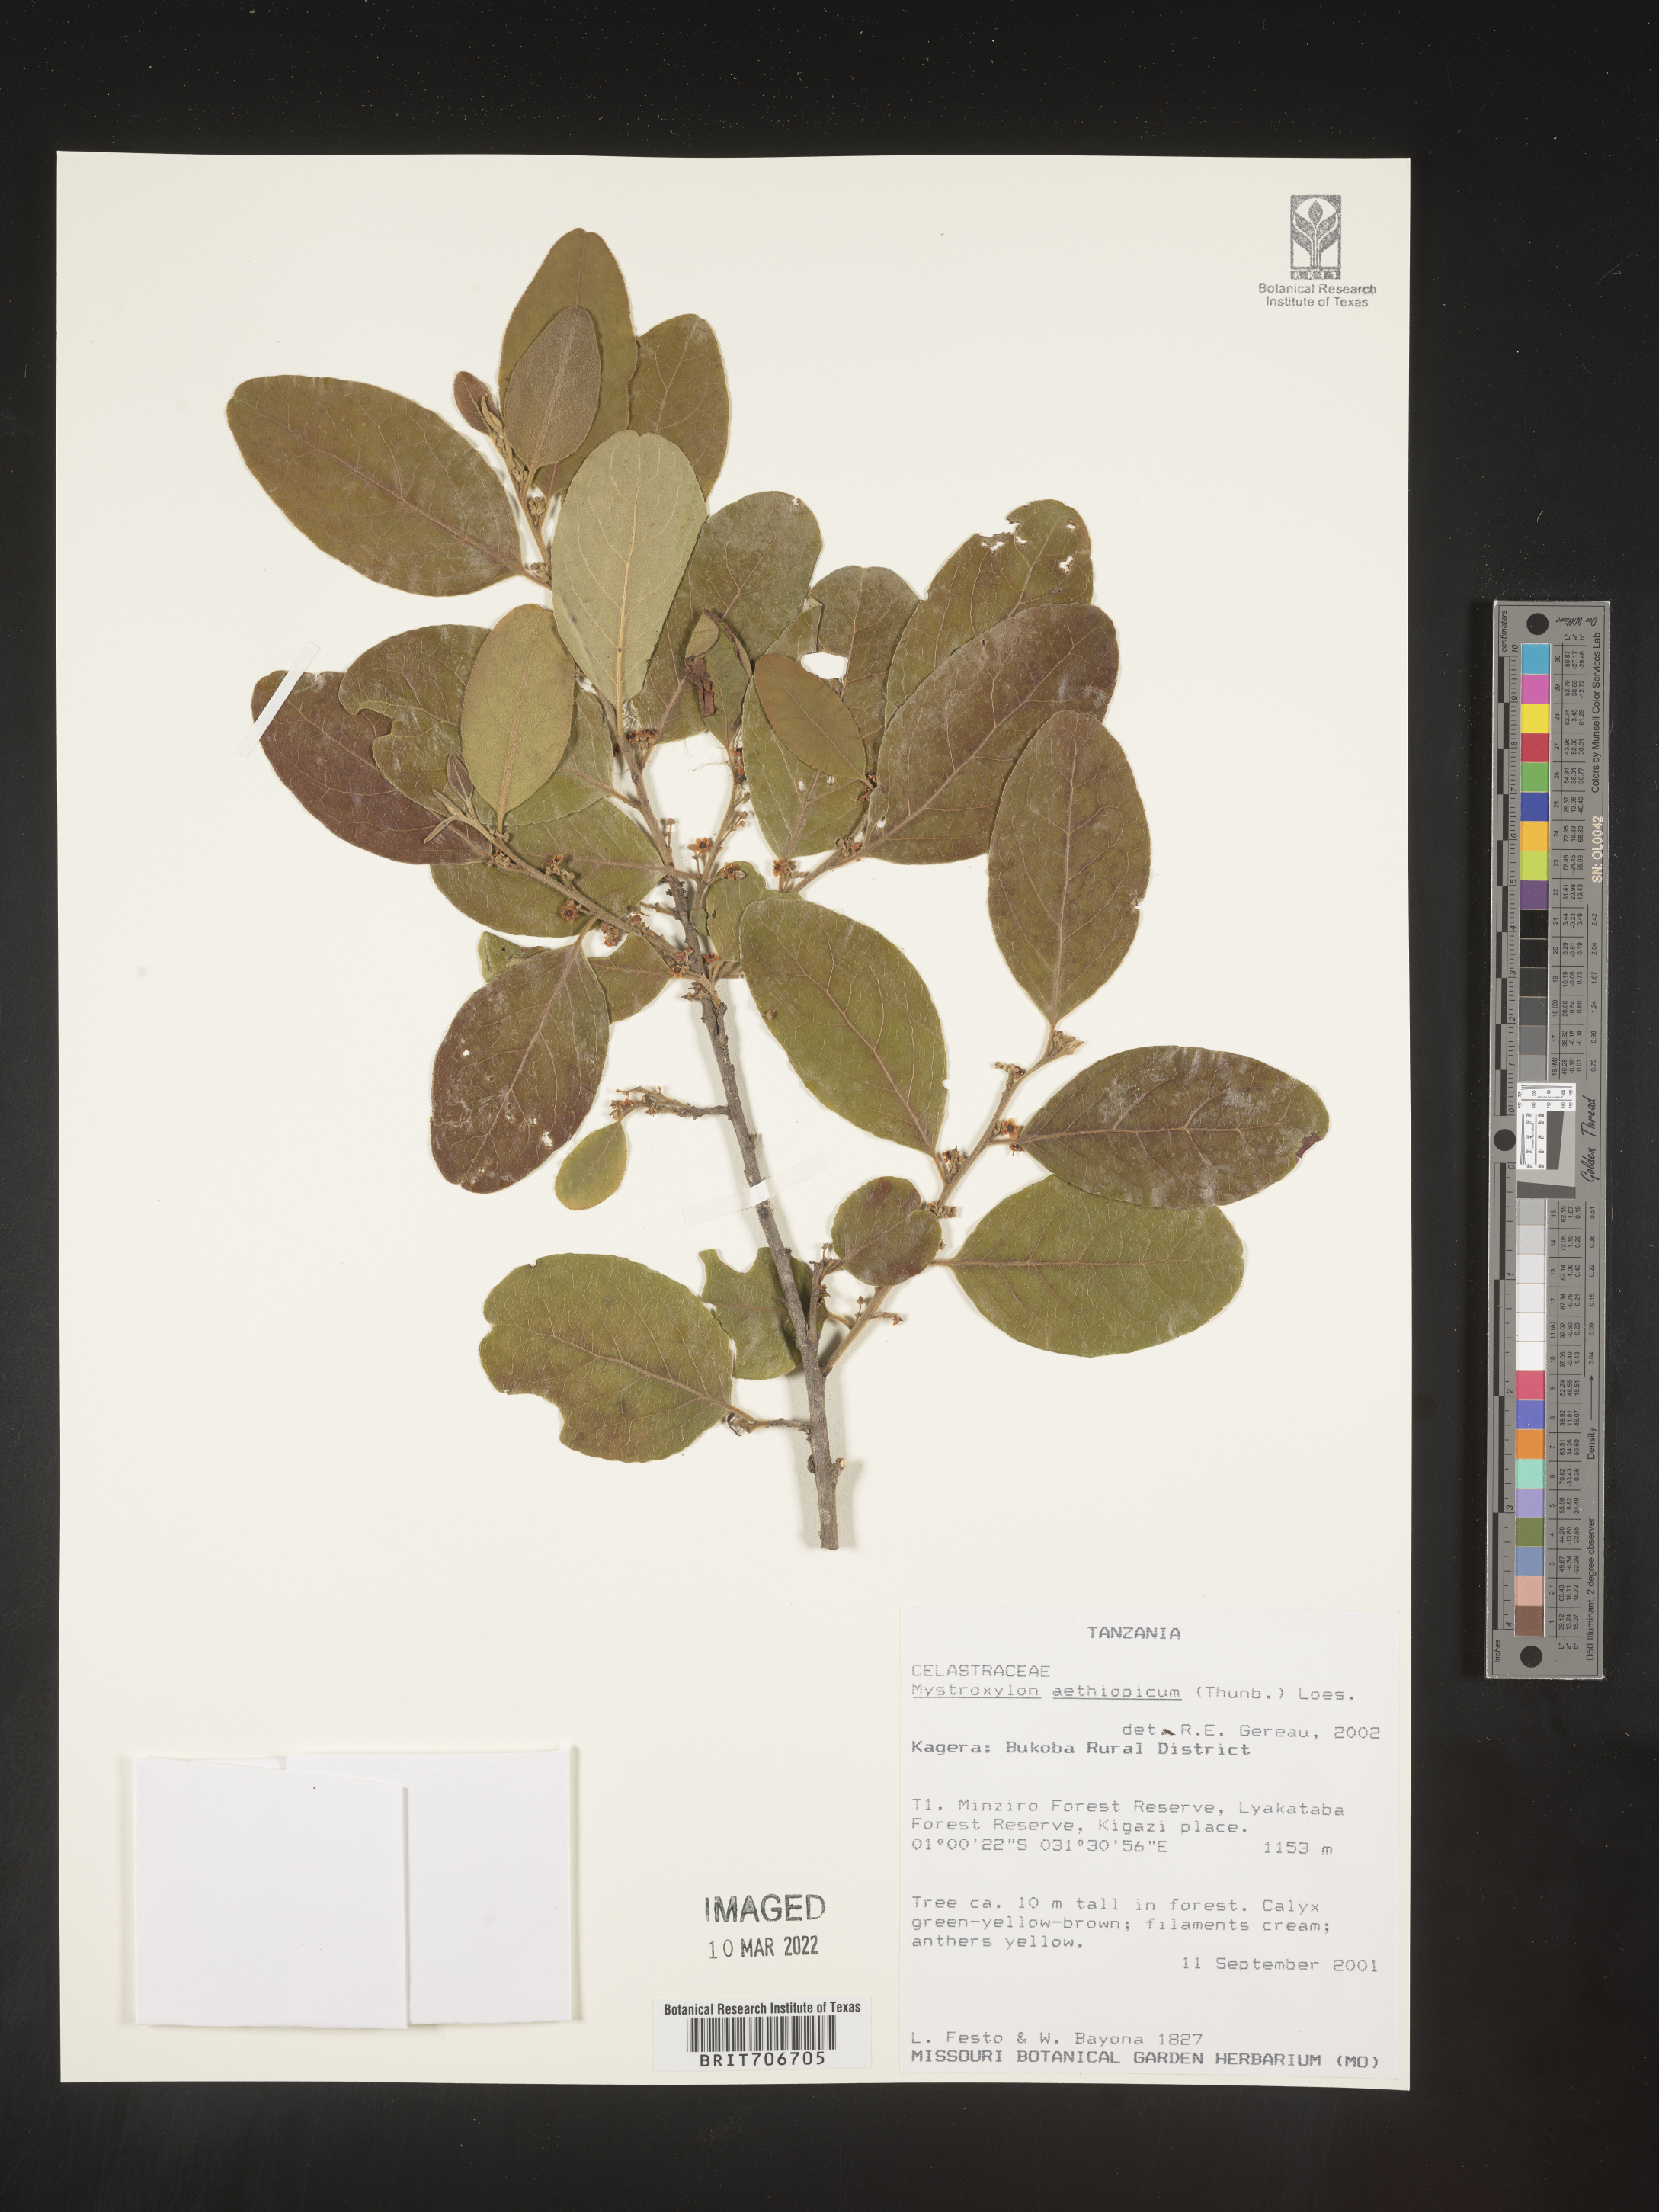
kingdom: Plantae
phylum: Tracheophyta
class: Magnoliopsida
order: Celastrales
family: Celastraceae
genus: Mystroxylon
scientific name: Mystroxylon
